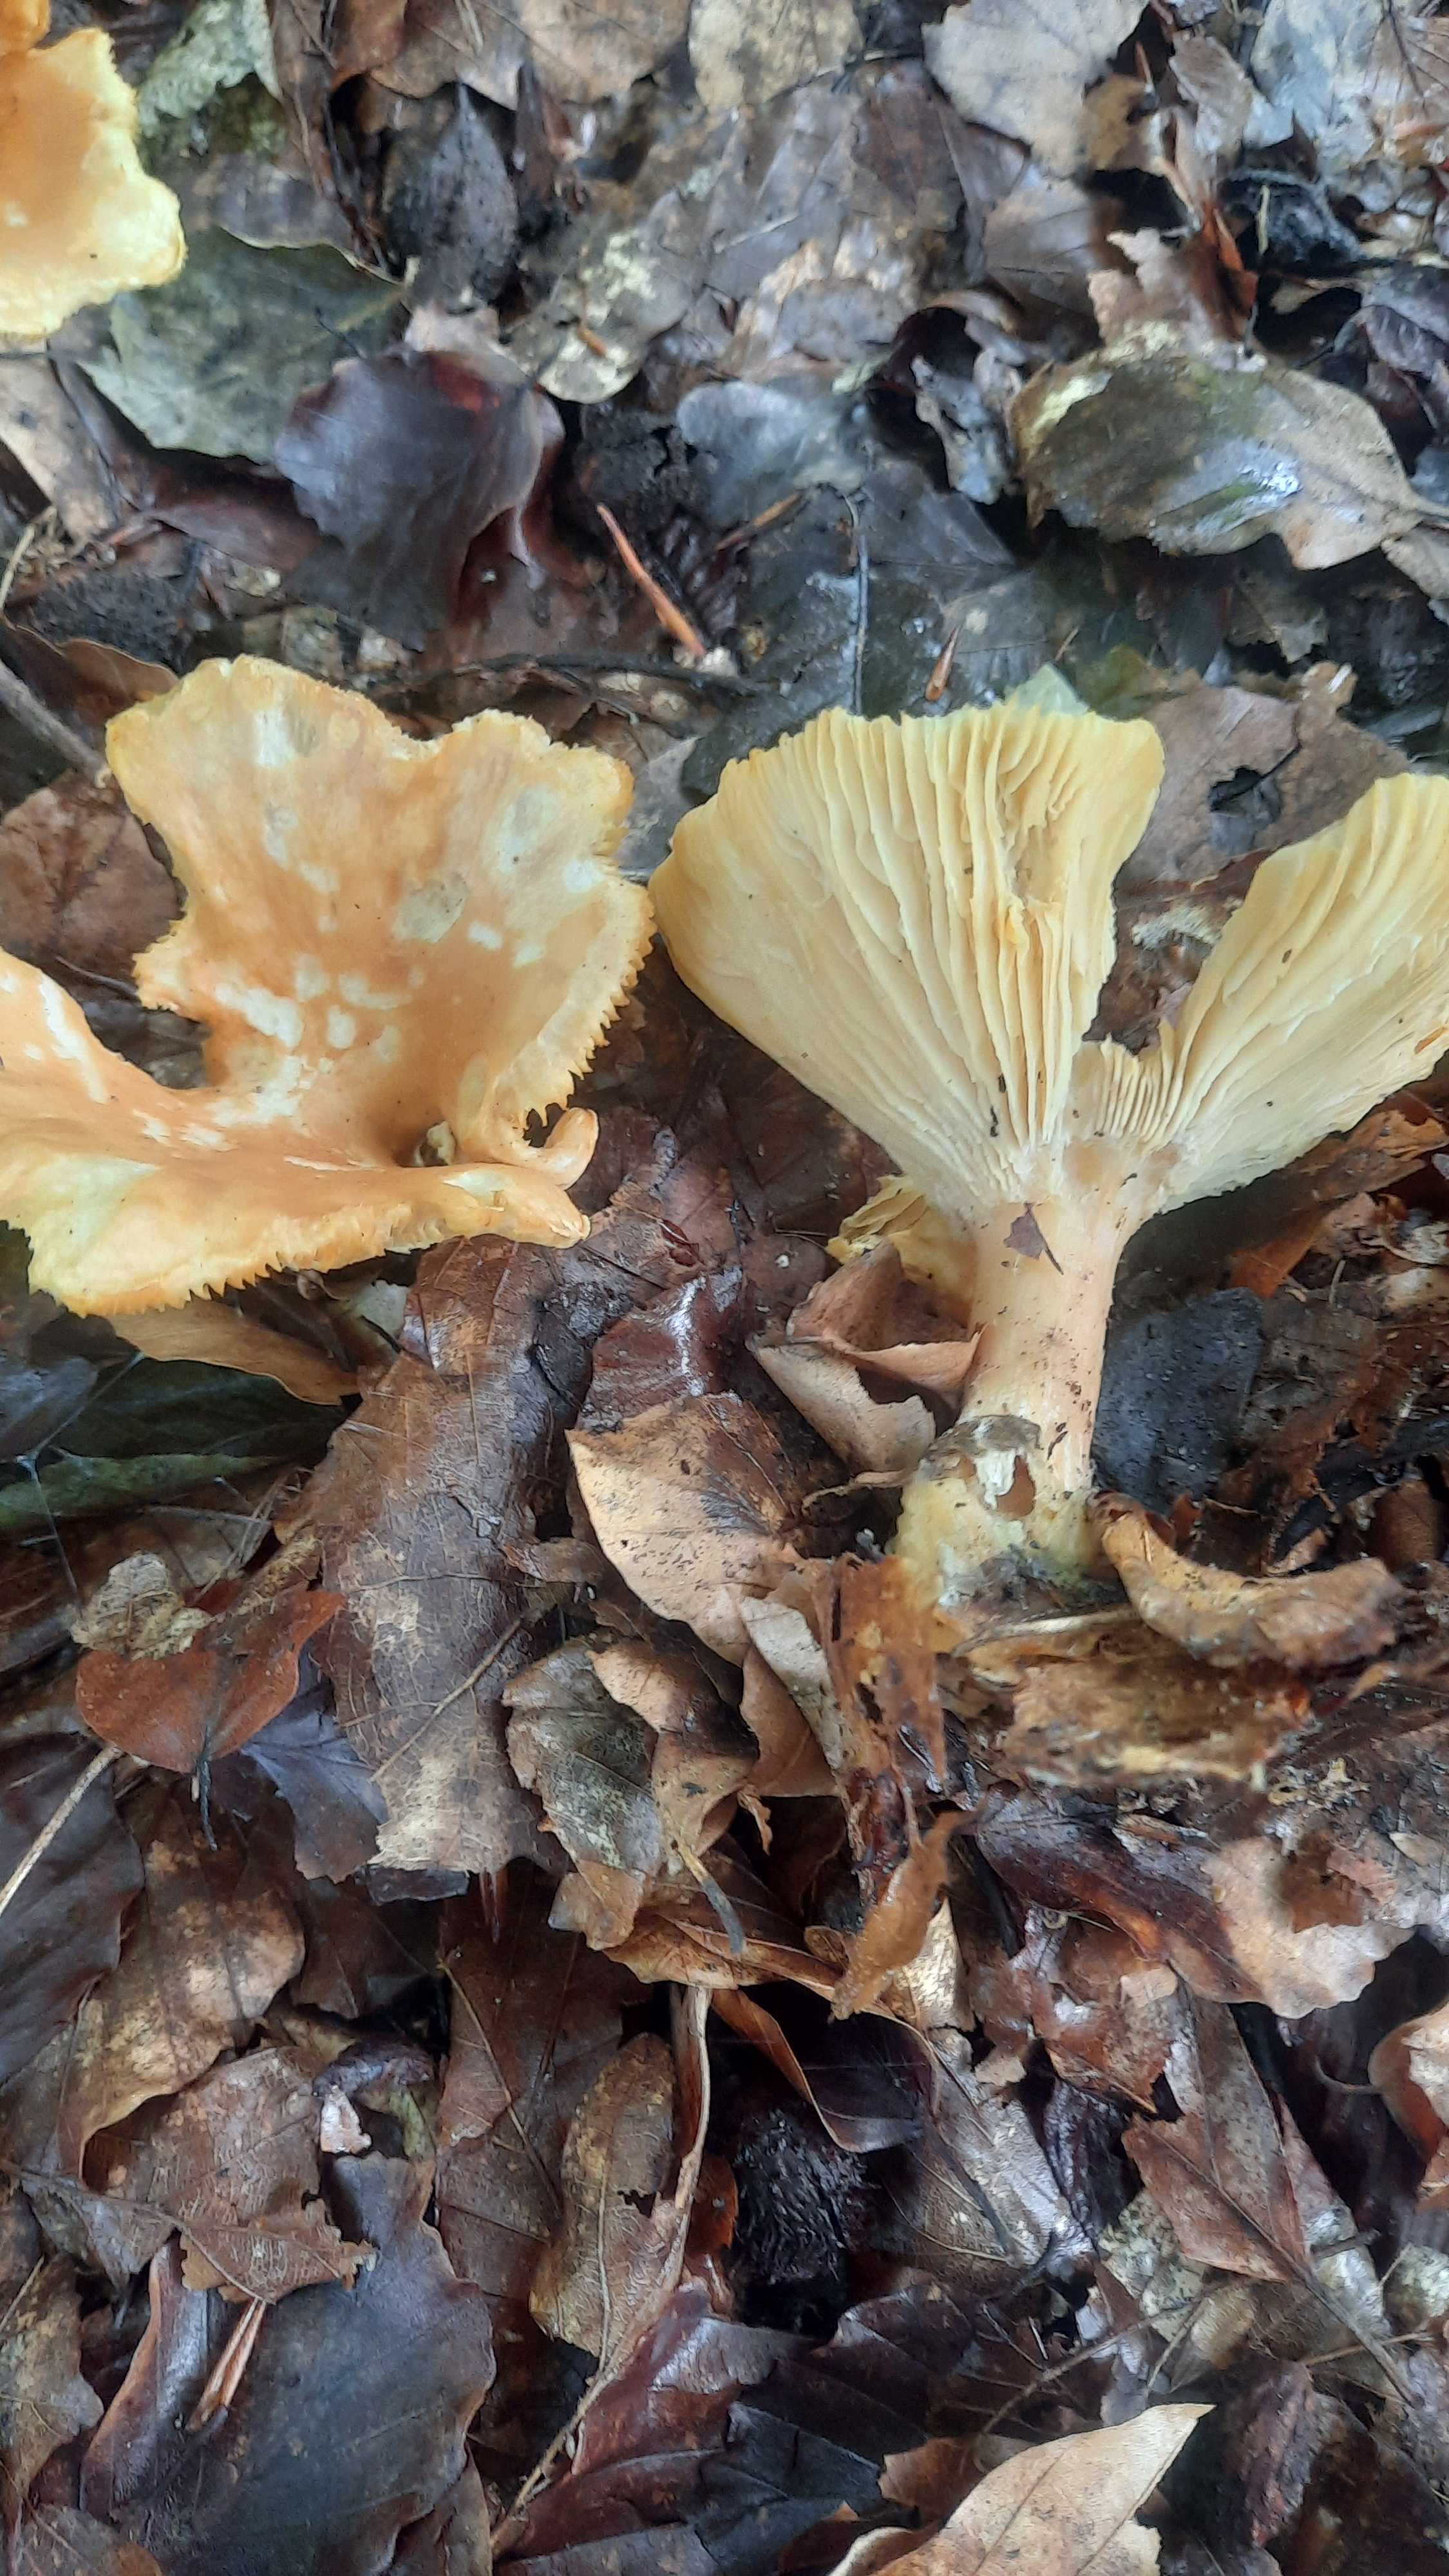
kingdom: Fungi
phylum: Basidiomycota
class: Agaricomycetes
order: Agaricales
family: Tricholomataceae
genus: Infundibulicybe
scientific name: Infundibulicybe gibba
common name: almindelig tragthat
